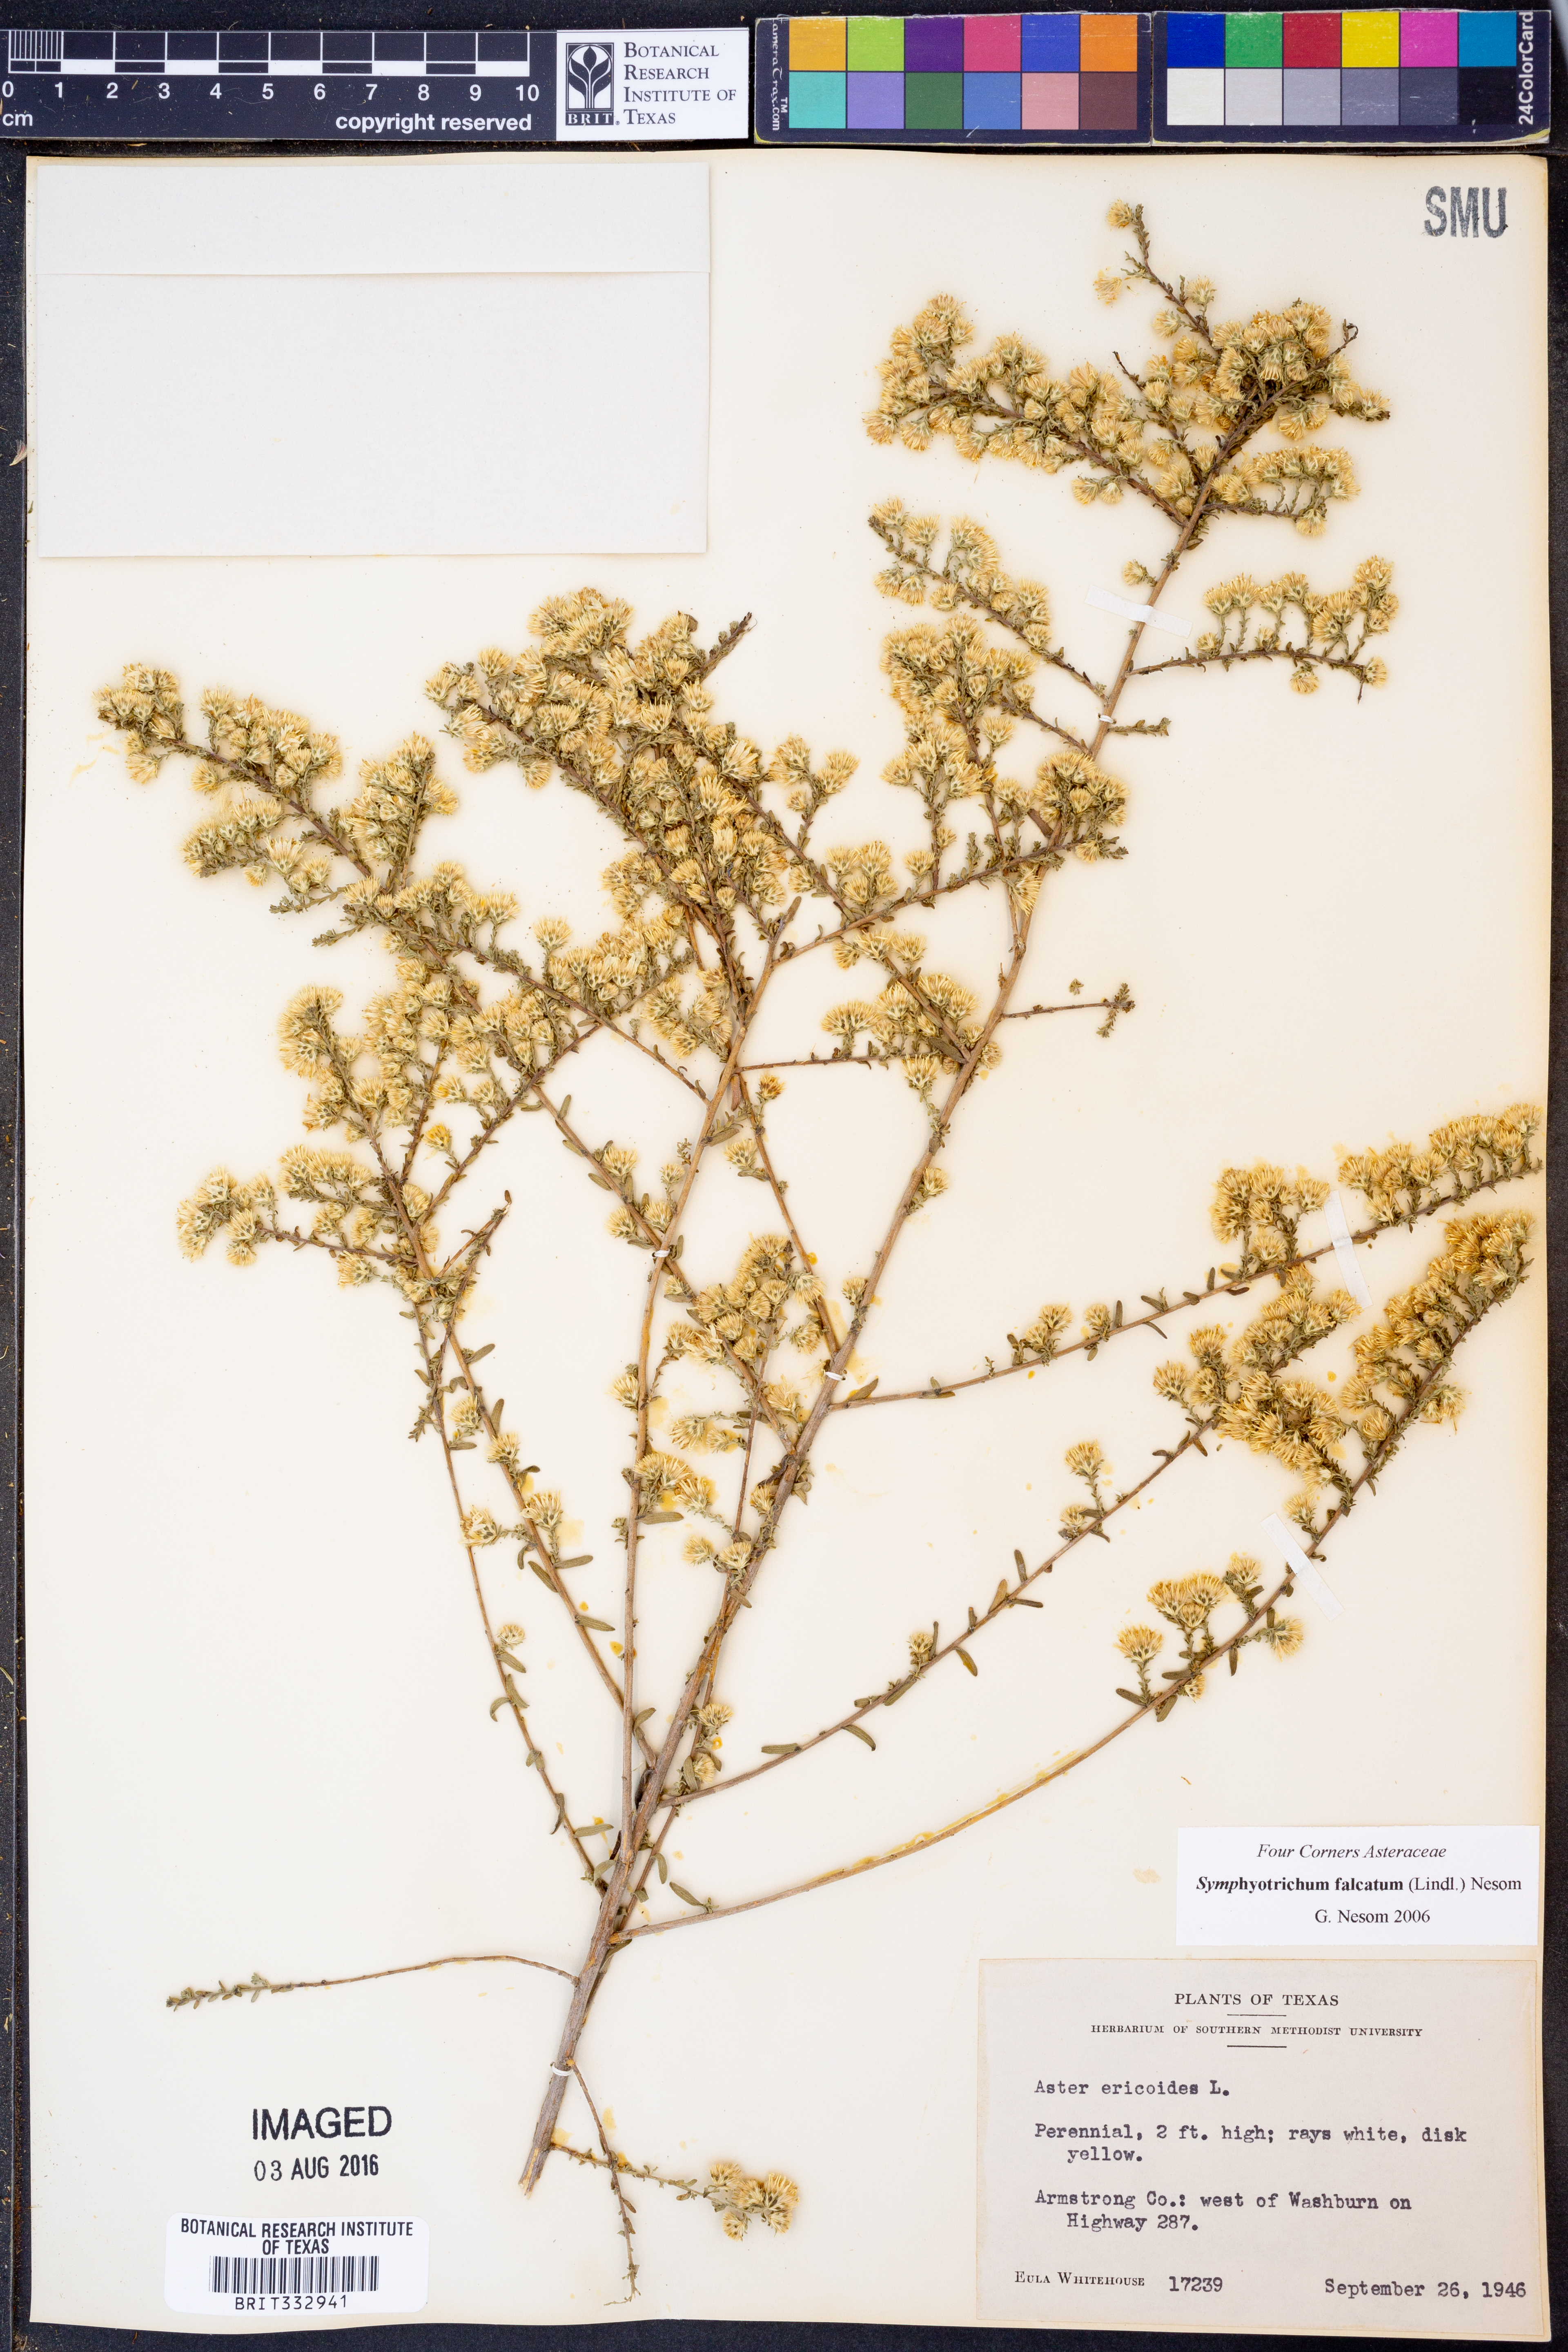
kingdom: Plantae
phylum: Tracheophyta
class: Magnoliopsida
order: Asterales
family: Asteraceae
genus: Symphyotrichum
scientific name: Symphyotrichum falcatum
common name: Creeping white prairie aster
